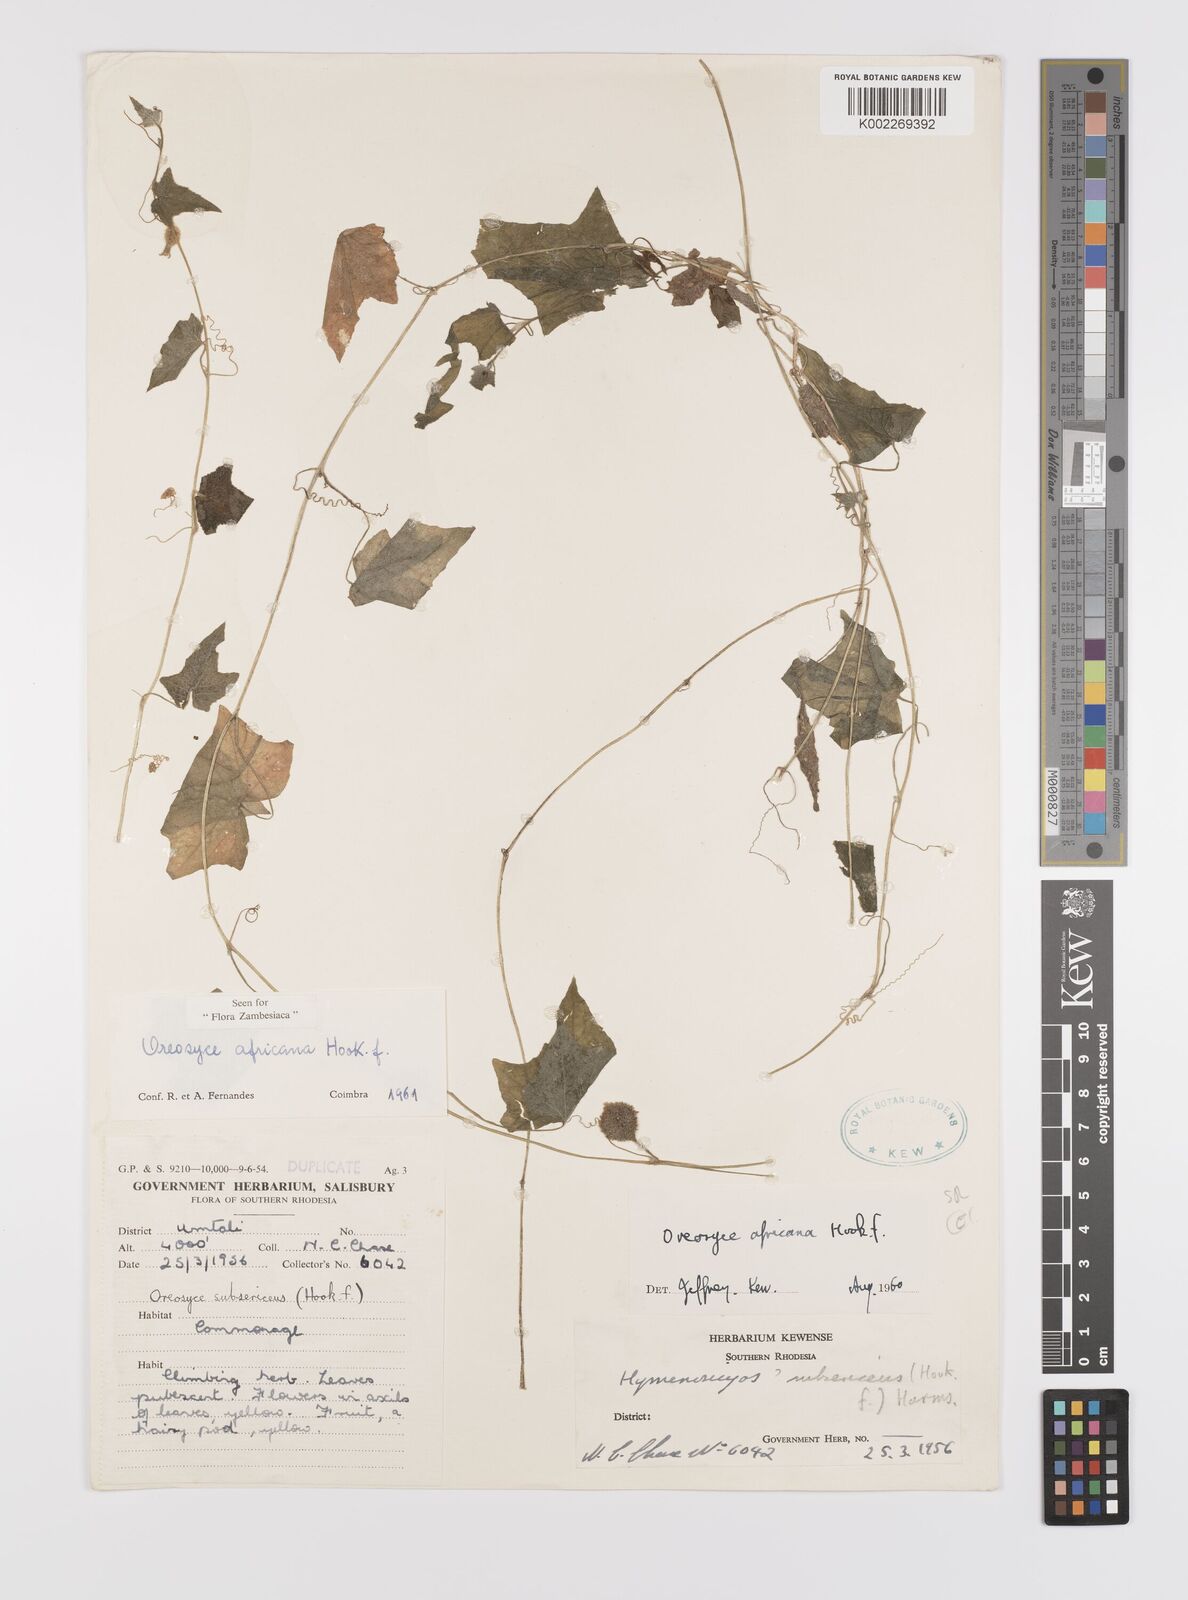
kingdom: Plantae
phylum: Tracheophyta
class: Magnoliopsida
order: Cucurbitales
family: Cucurbitaceae
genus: Cucumis
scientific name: Cucumis oreosyce
